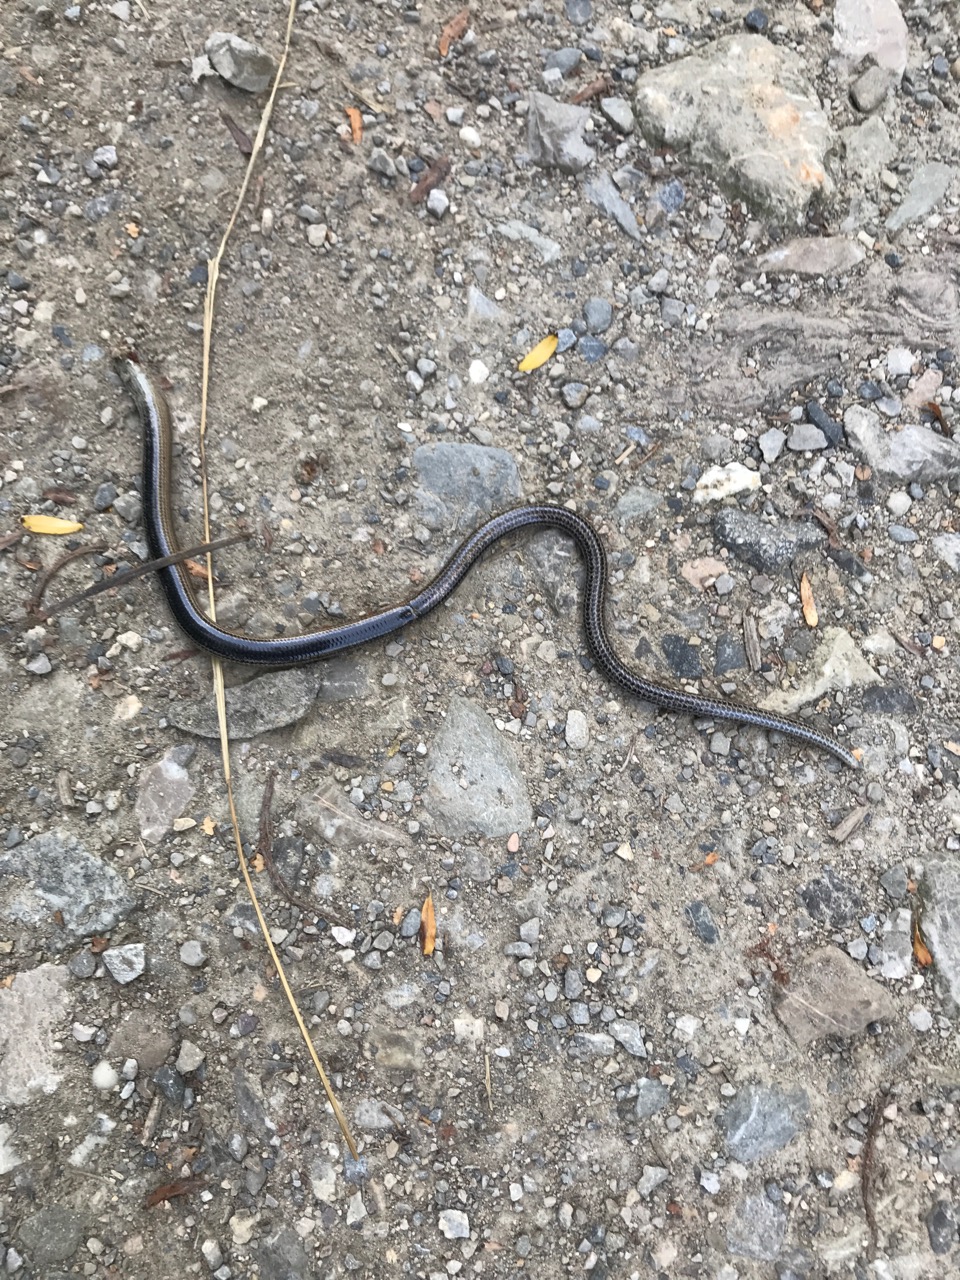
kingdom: Animalia
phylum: Chordata
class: Squamata
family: Anguidae
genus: Anguis
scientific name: Anguis fragilis
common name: Slow worm
